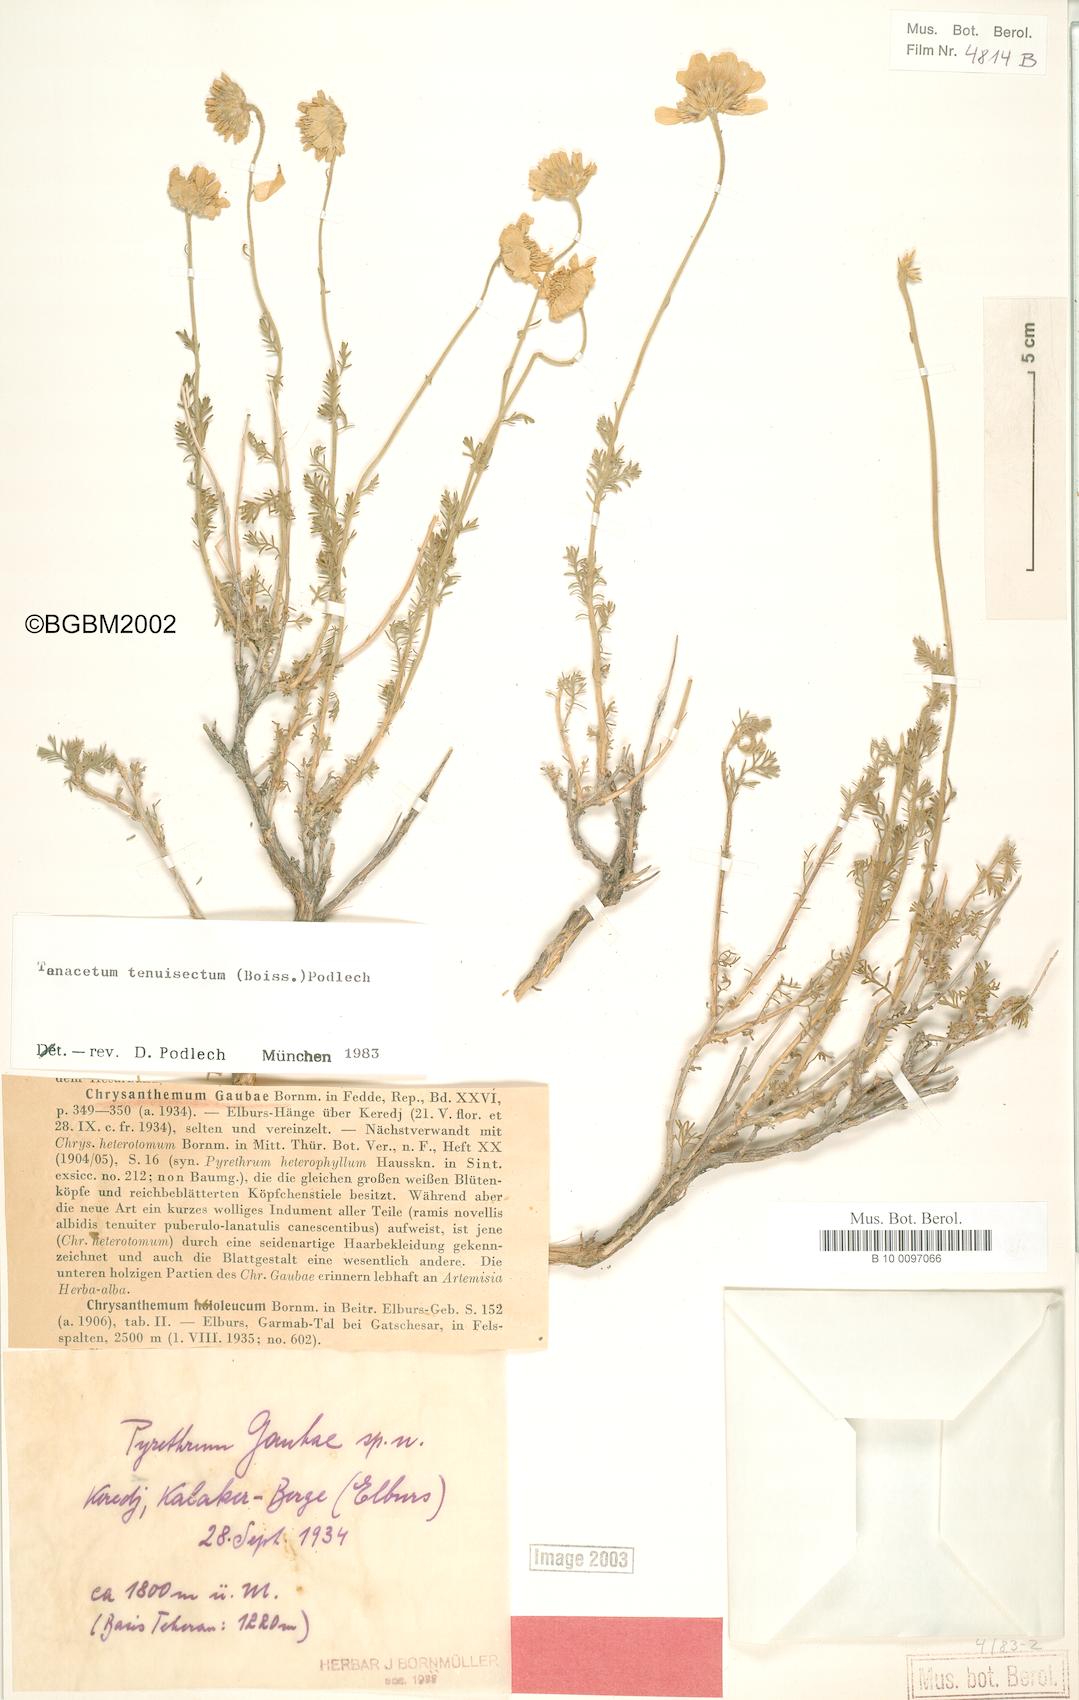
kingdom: Plantae
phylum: Tracheophyta
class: Magnoliopsida
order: Asterales
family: Asteraceae
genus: Tanacetum
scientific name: Tanacetum tenuisectum
